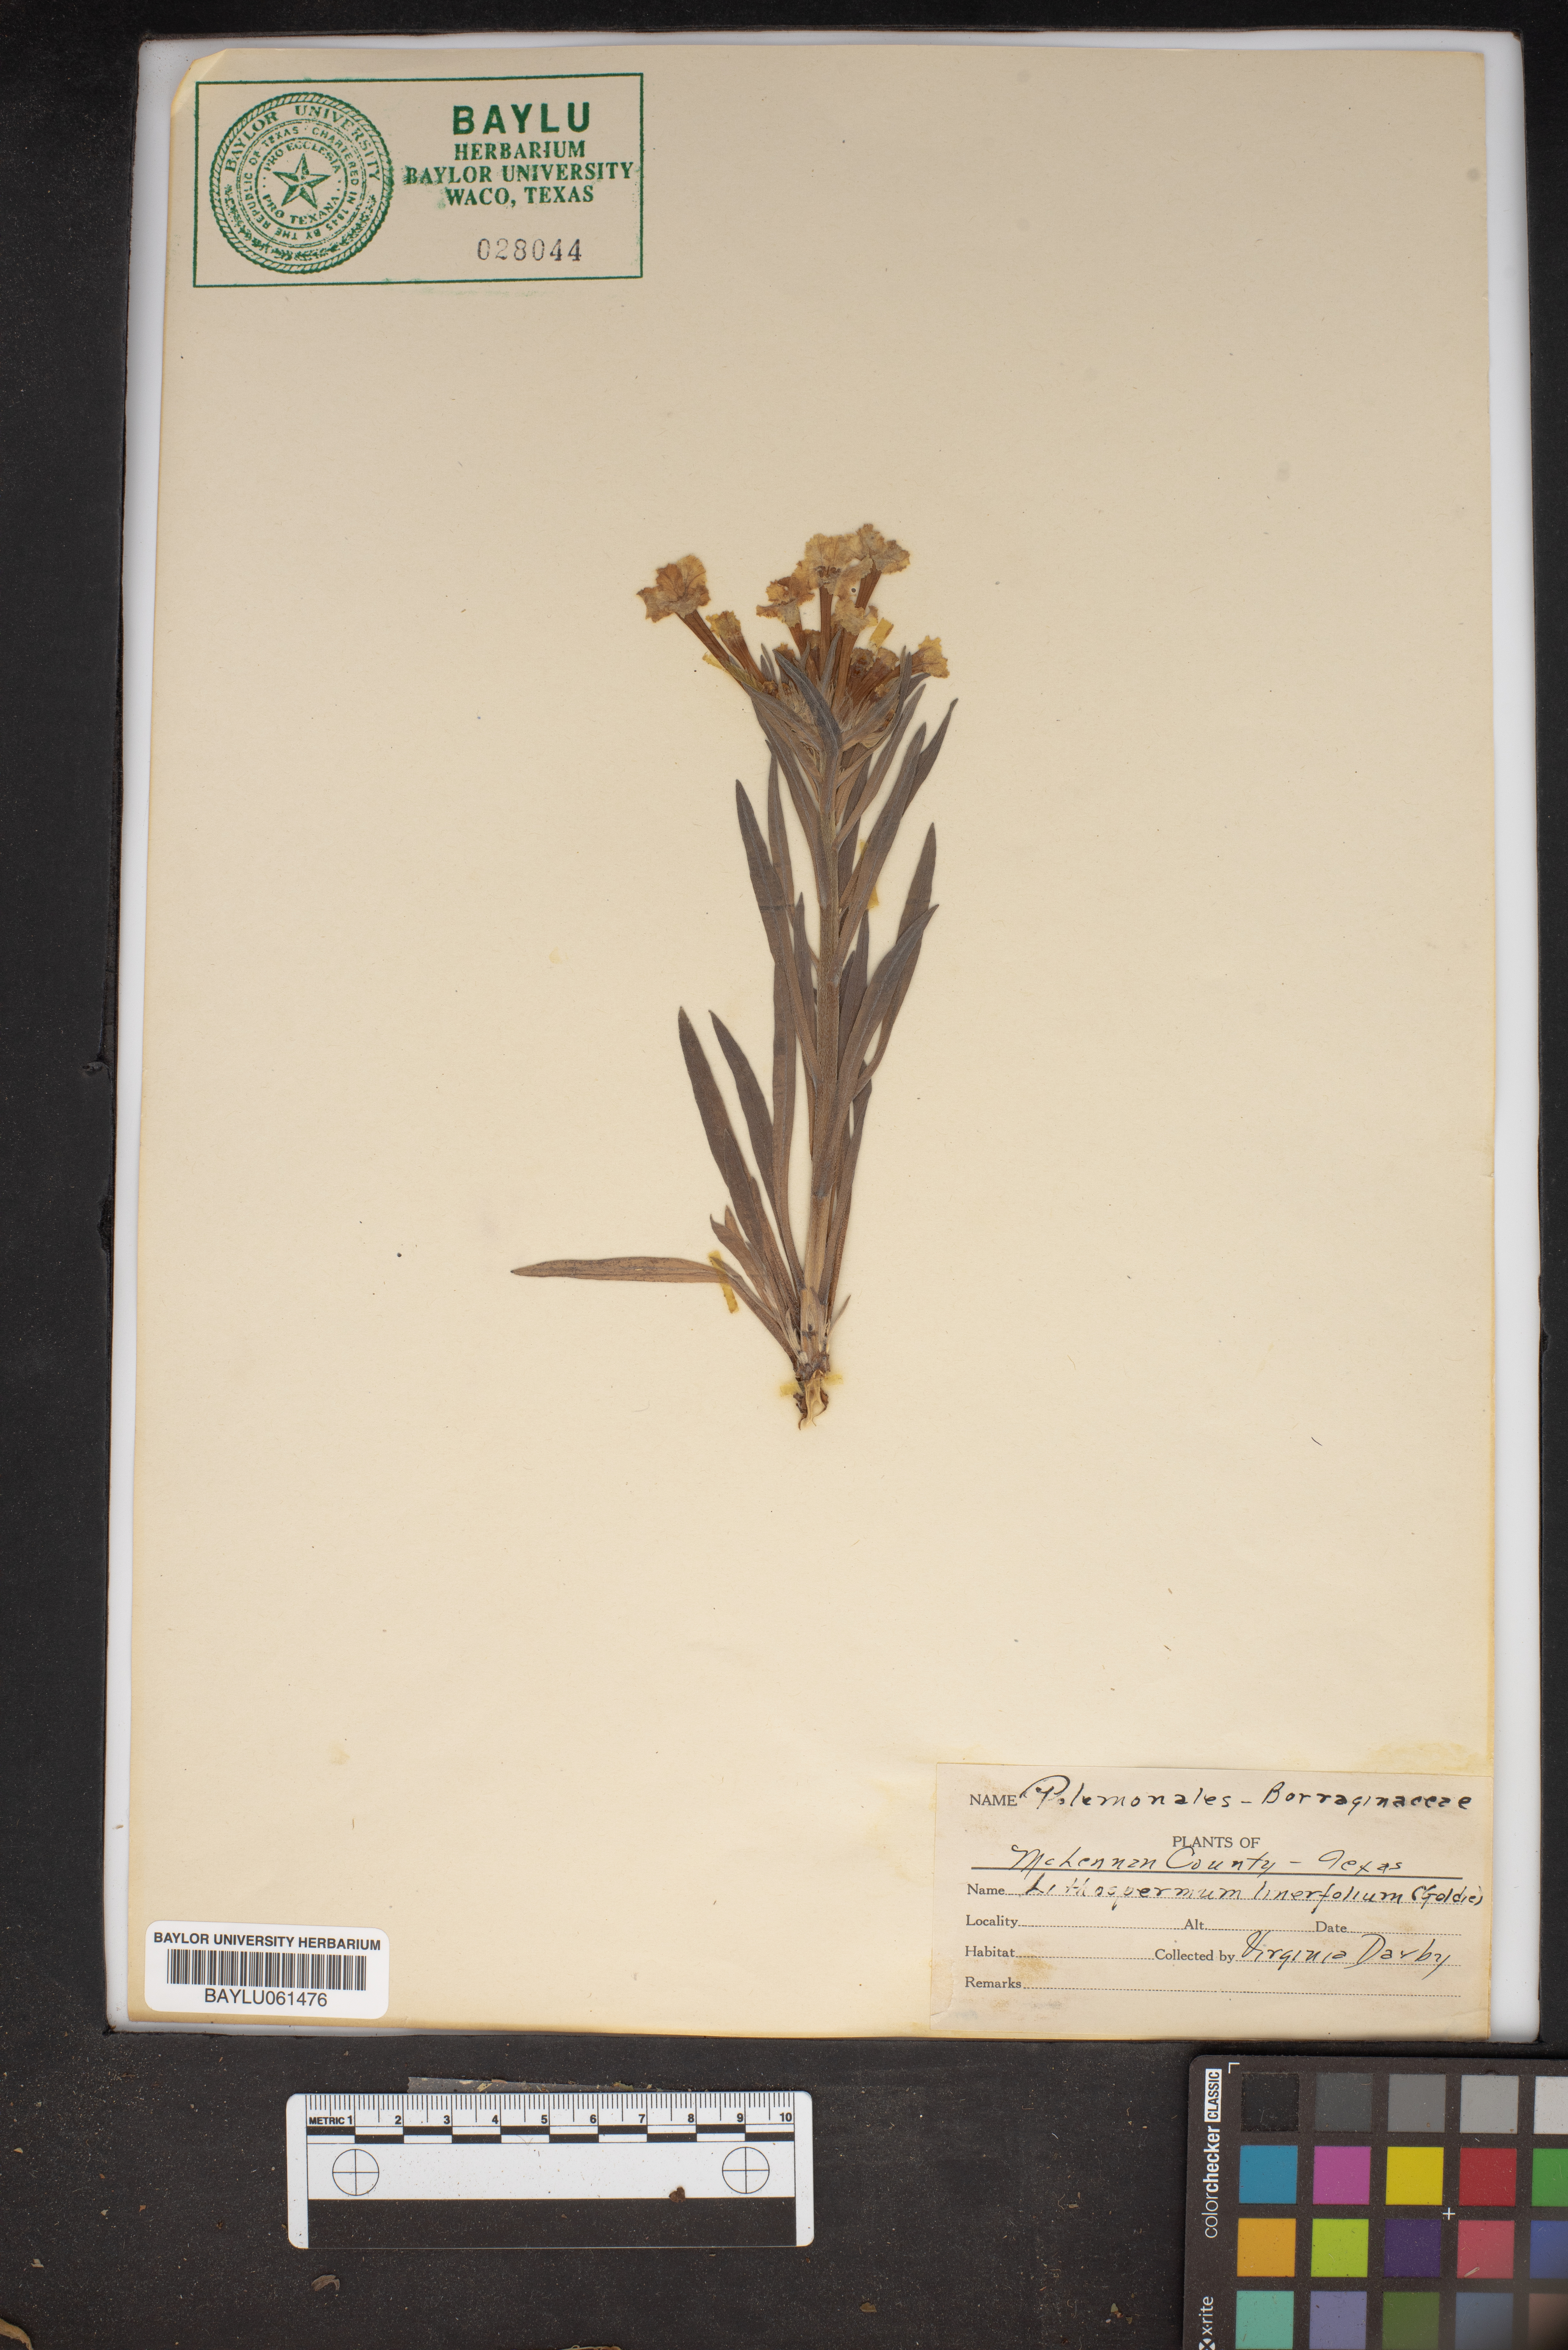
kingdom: Plantae
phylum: Tracheophyta
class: Magnoliopsida
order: Boraginales
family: Boraginaceae
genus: Lithospermum
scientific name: Lithospermum incisum
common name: Fringed gromwell
